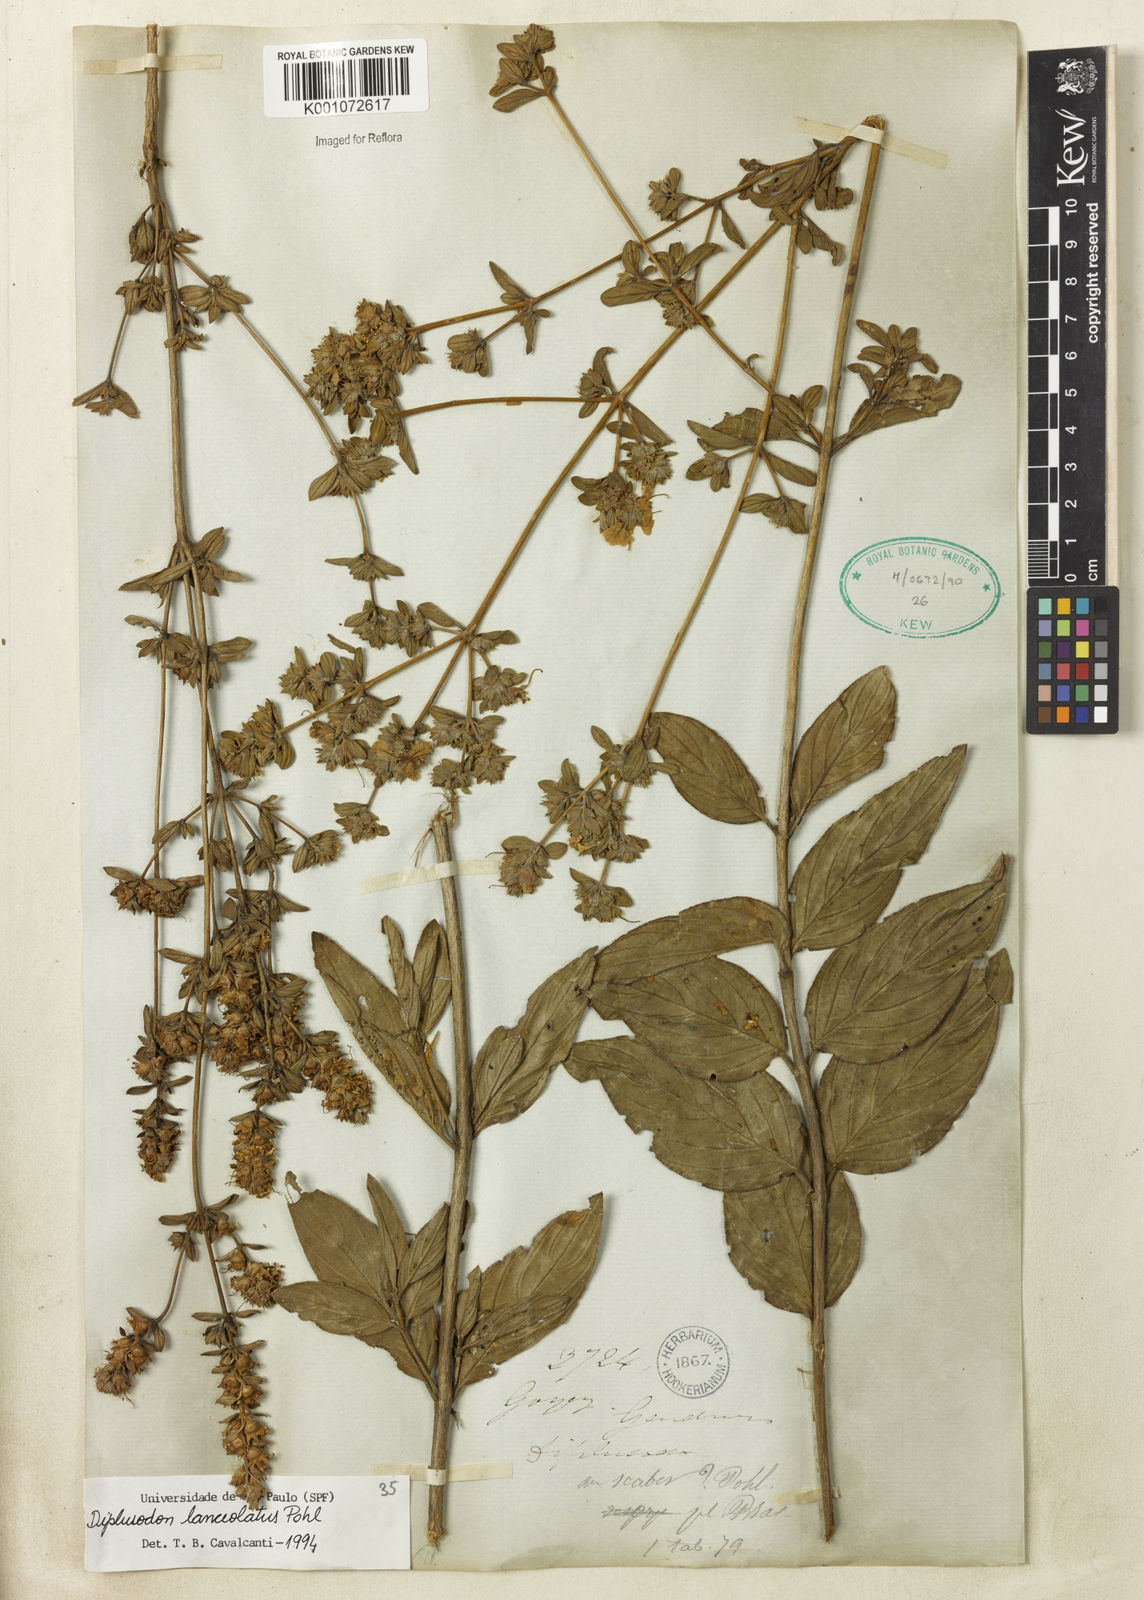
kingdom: Plantae
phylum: Tracheophyta
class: Magnoliopsida
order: Myrtales
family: Lythraceae
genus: Diplusodon
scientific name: Diplusodon lanceolatus
